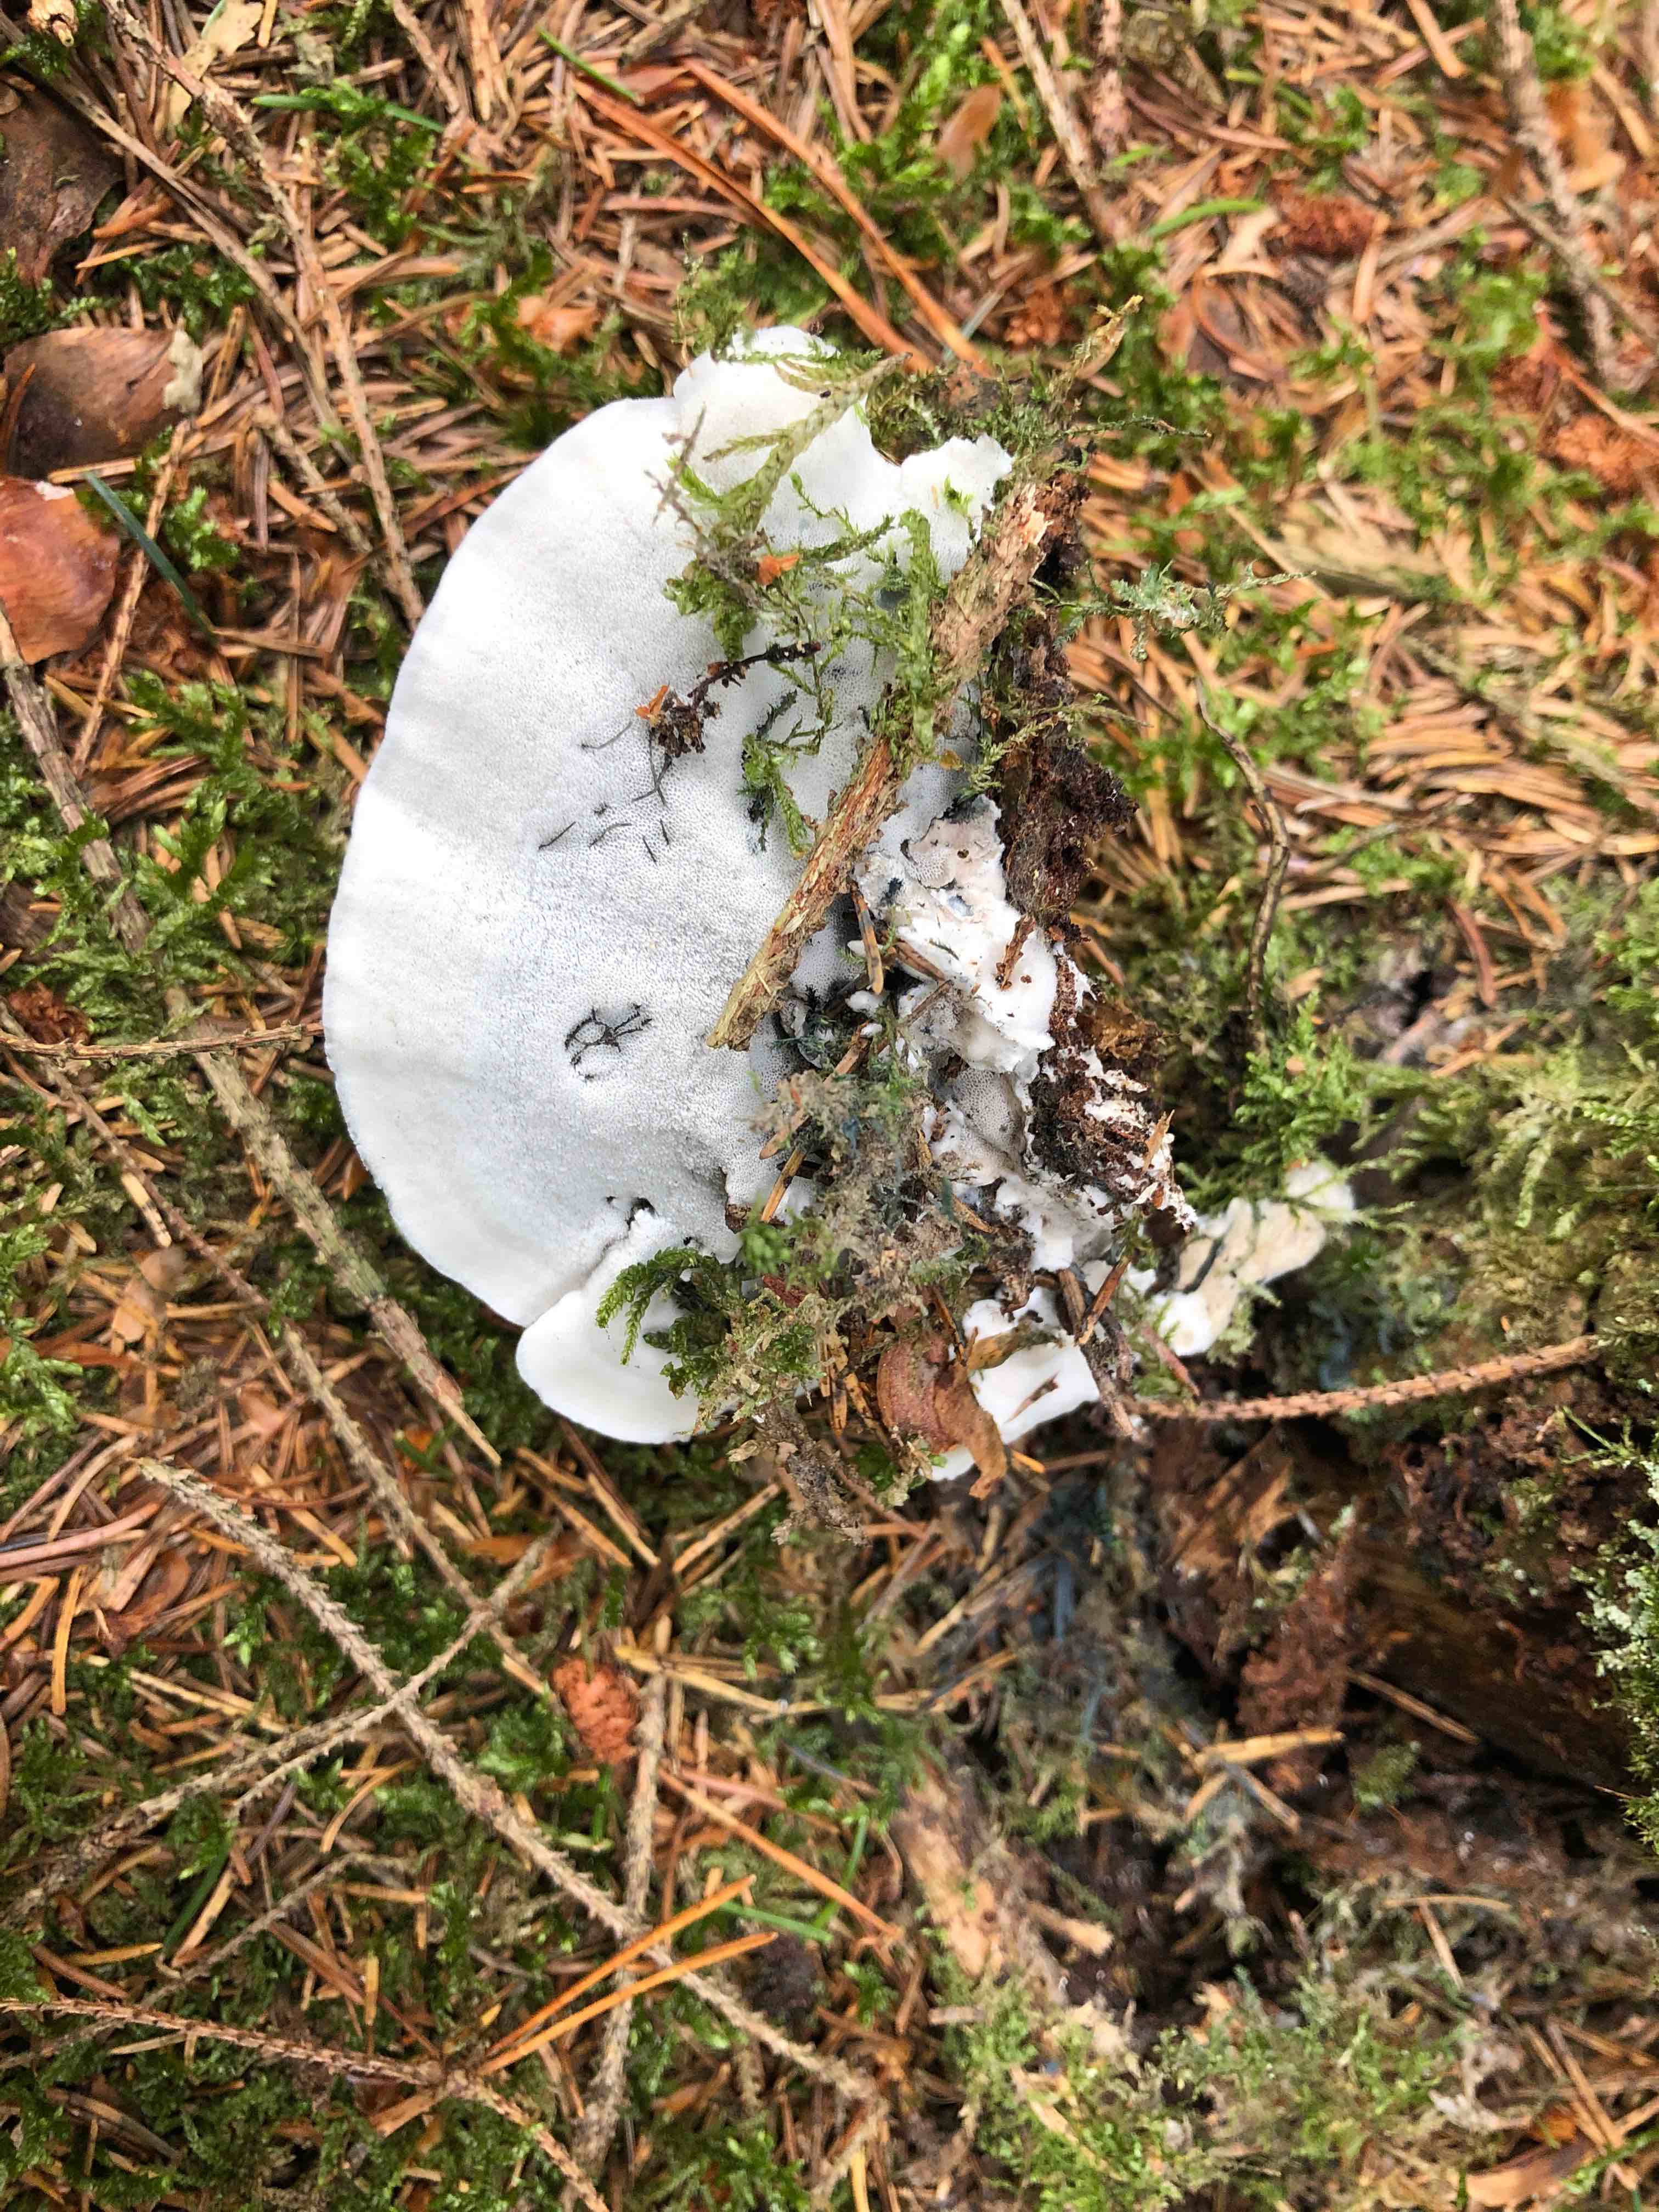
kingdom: Fungi
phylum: Basidiomycota
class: Agaricomycetes
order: Polyporales
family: Polyporaceae
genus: Cyanosporus
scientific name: Cyanosporus caesius
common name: blålig kødporesvamp
